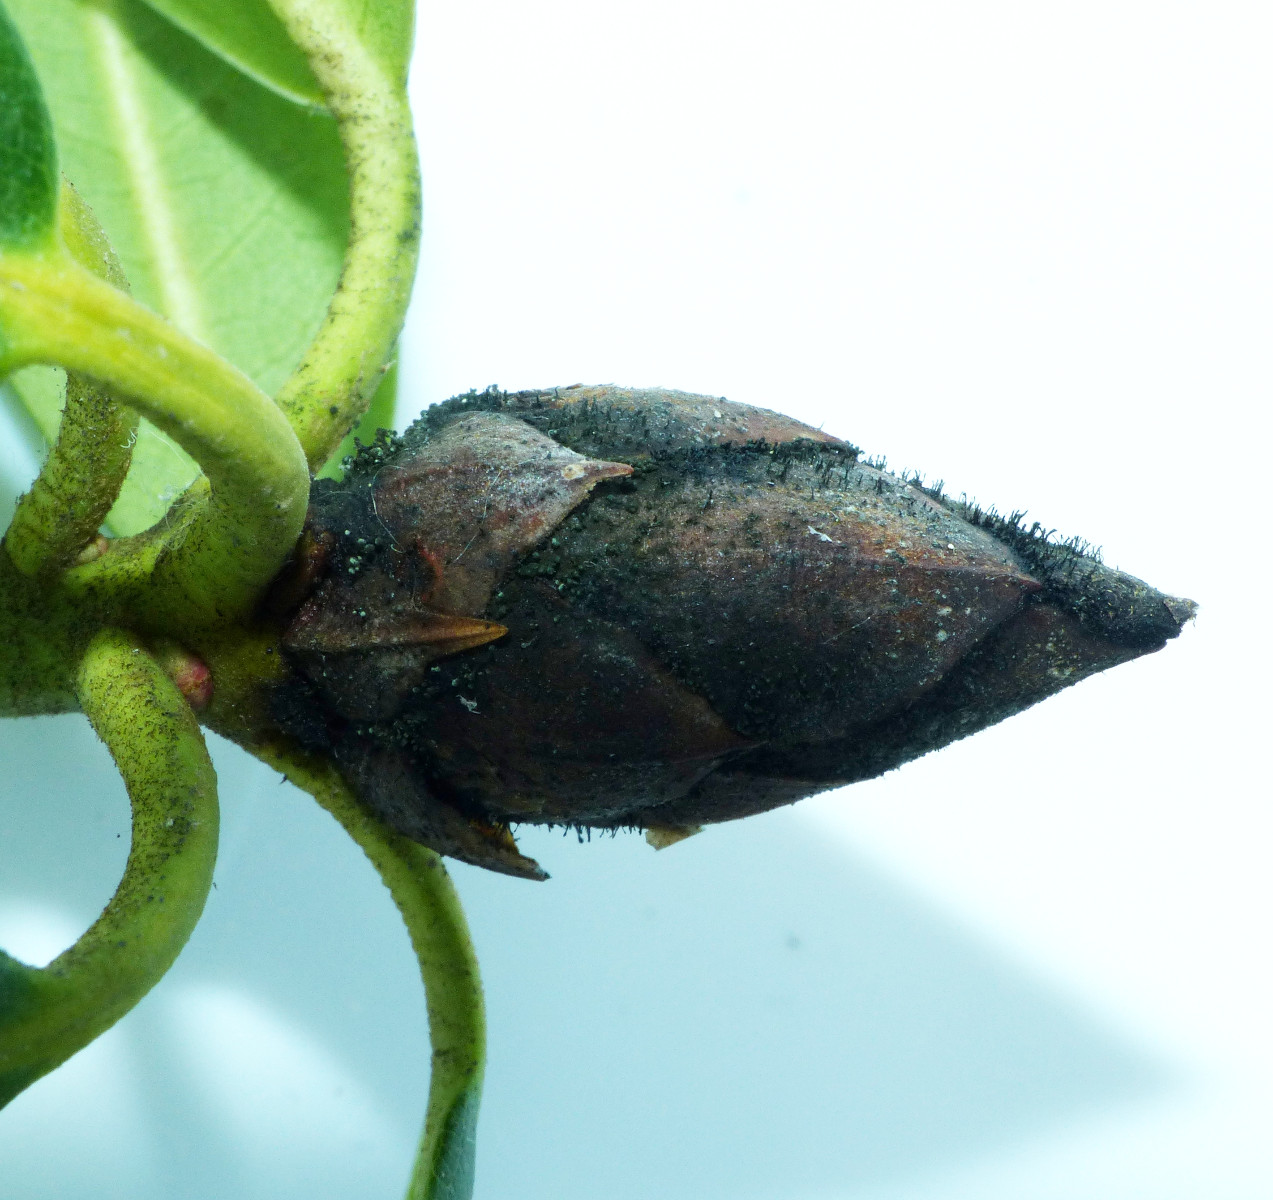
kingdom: Fungi
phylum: Ascomycota
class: Dothideomycetes
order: Pleosporales
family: Melanommataceae
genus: Seifertia
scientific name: Seifertia azaleae
